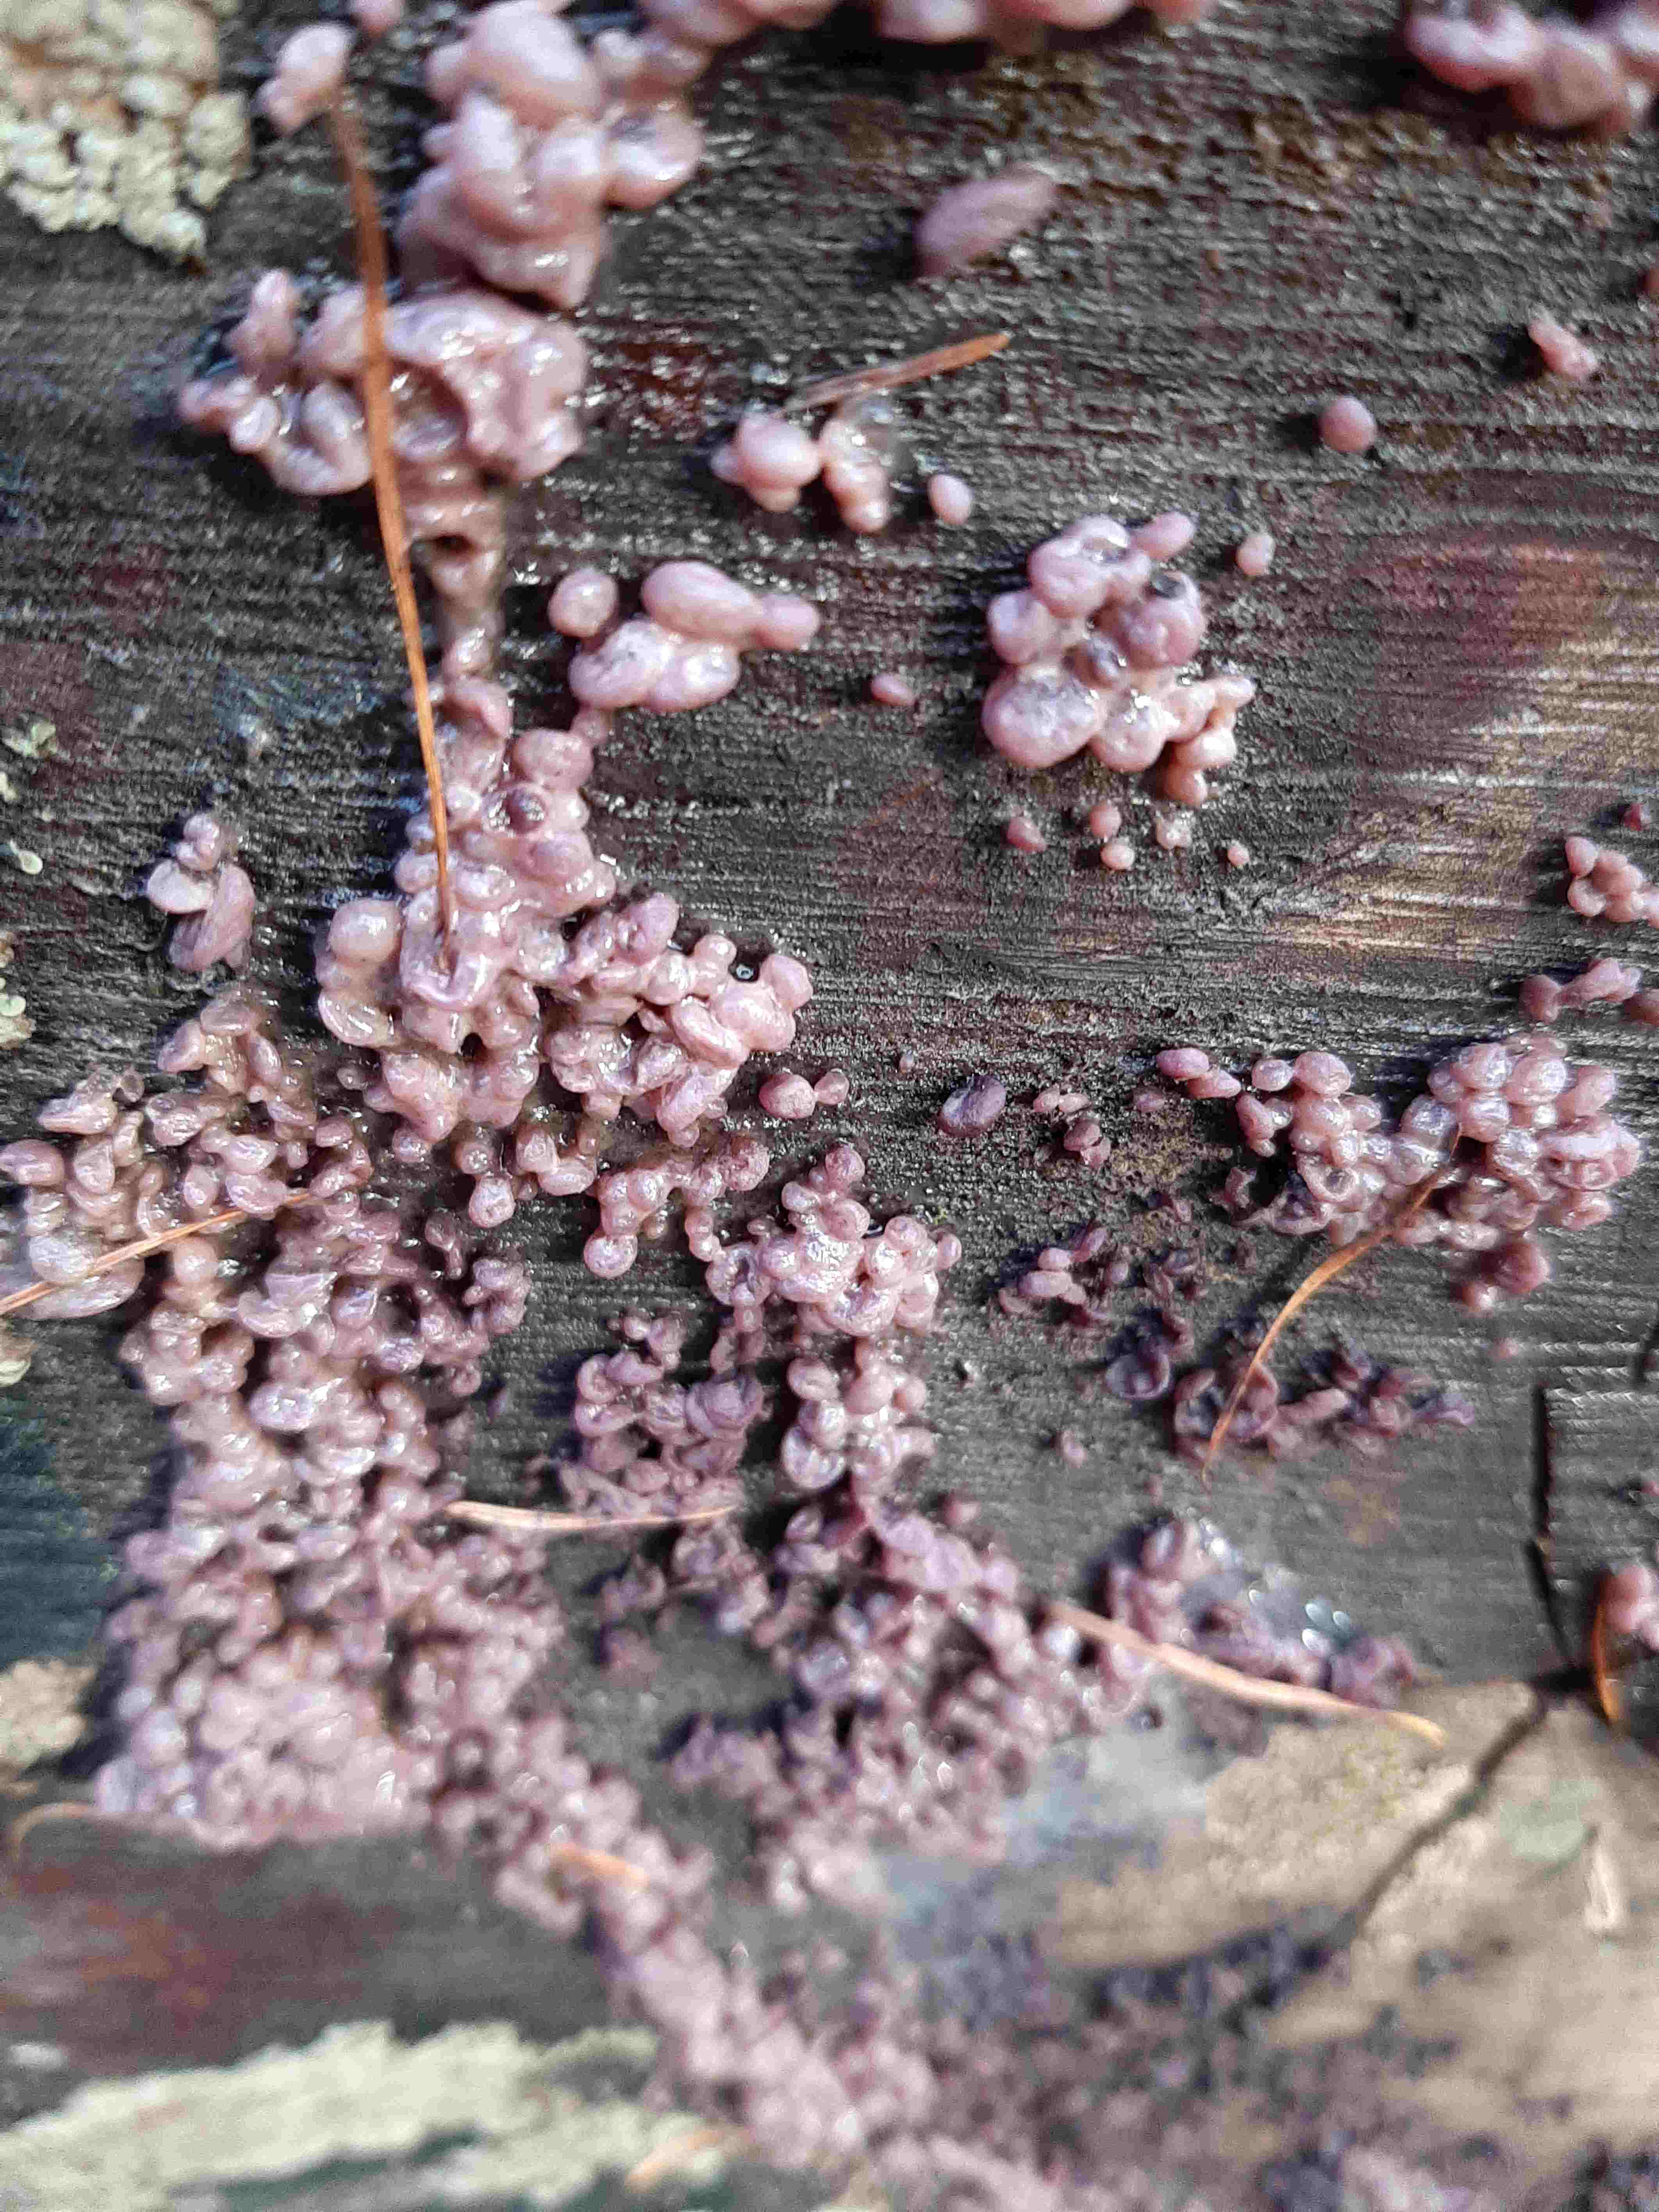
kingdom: Fungi
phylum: Ascomycota
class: Leotiomycetes
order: Helotiales
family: Gelatinodiscaceae
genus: Ascocoryne
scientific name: Ascocoryne sarcoides
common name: rødlilla sejskive
